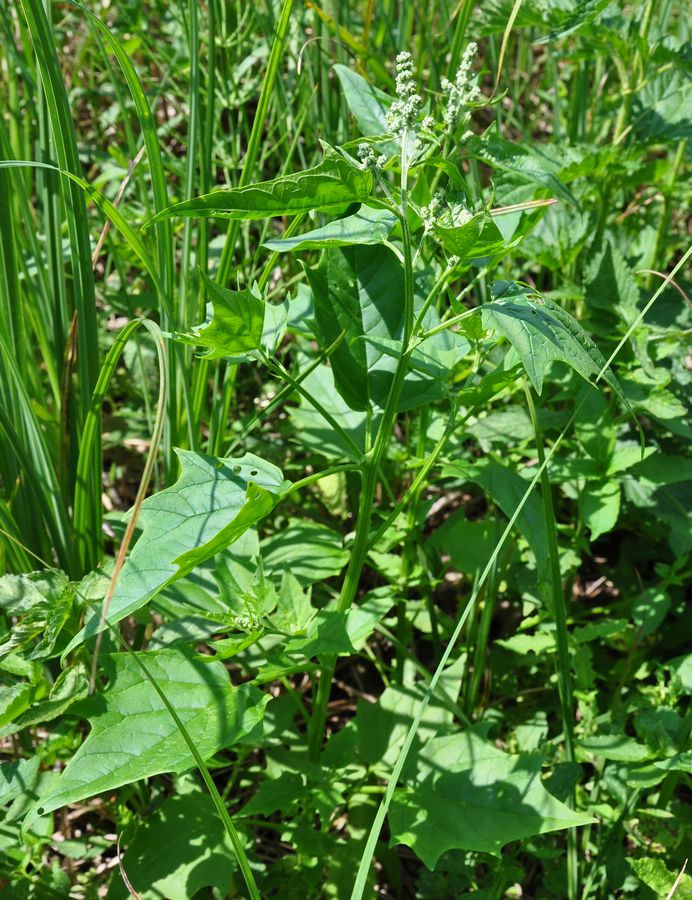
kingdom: Plantae
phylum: Tracheophyta
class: Magnoliopsida
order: Caryophyllales
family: Amaranthaceae
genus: Chenopodiastrum
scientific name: Chenopodiastrum hybridum
